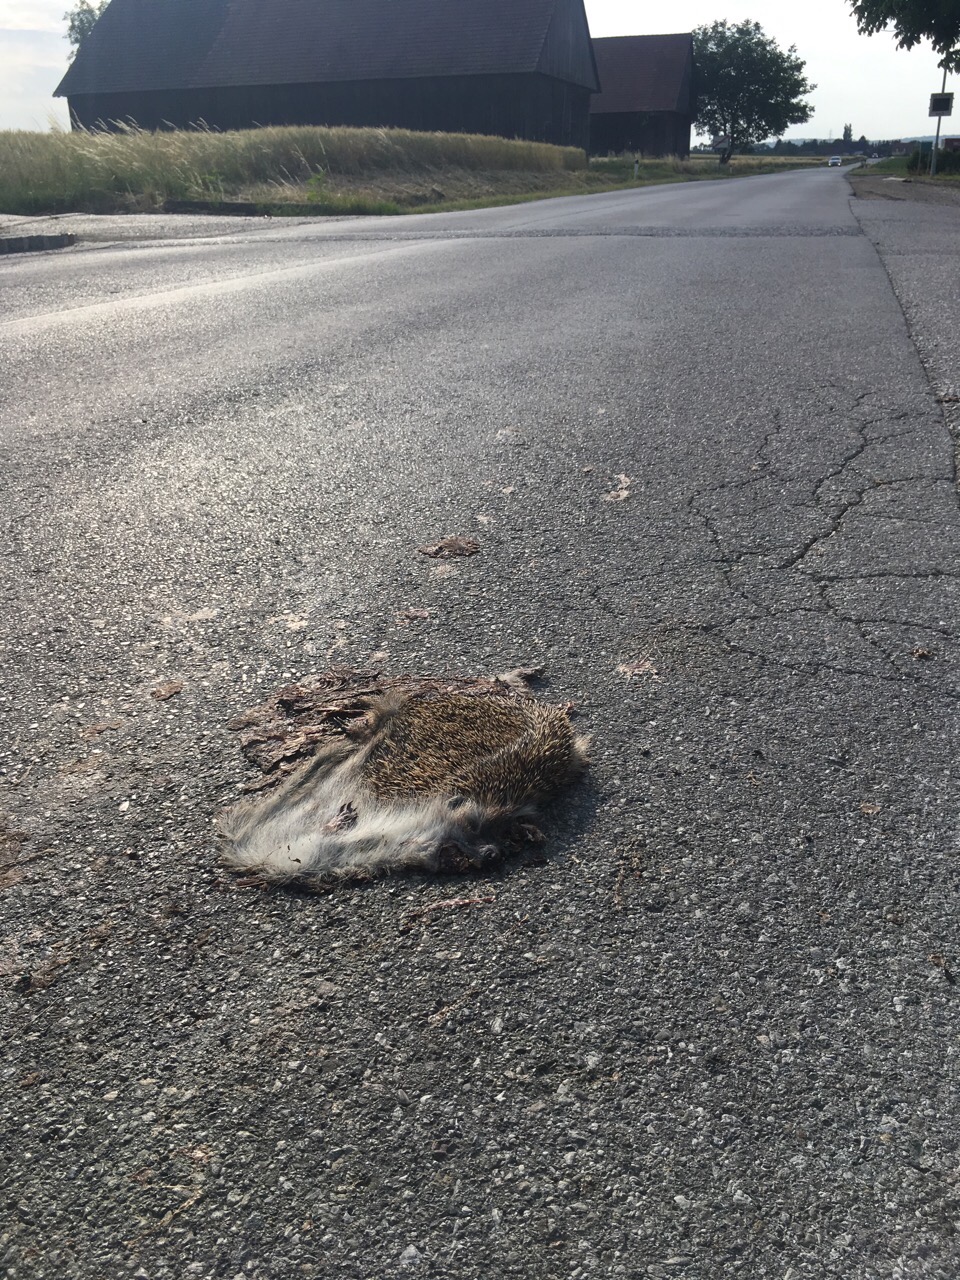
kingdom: Animalia
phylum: Chordata
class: Mammalia
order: Erinaceomorpha
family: Erinaceidae
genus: Erinaceus
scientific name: Erinaceus
